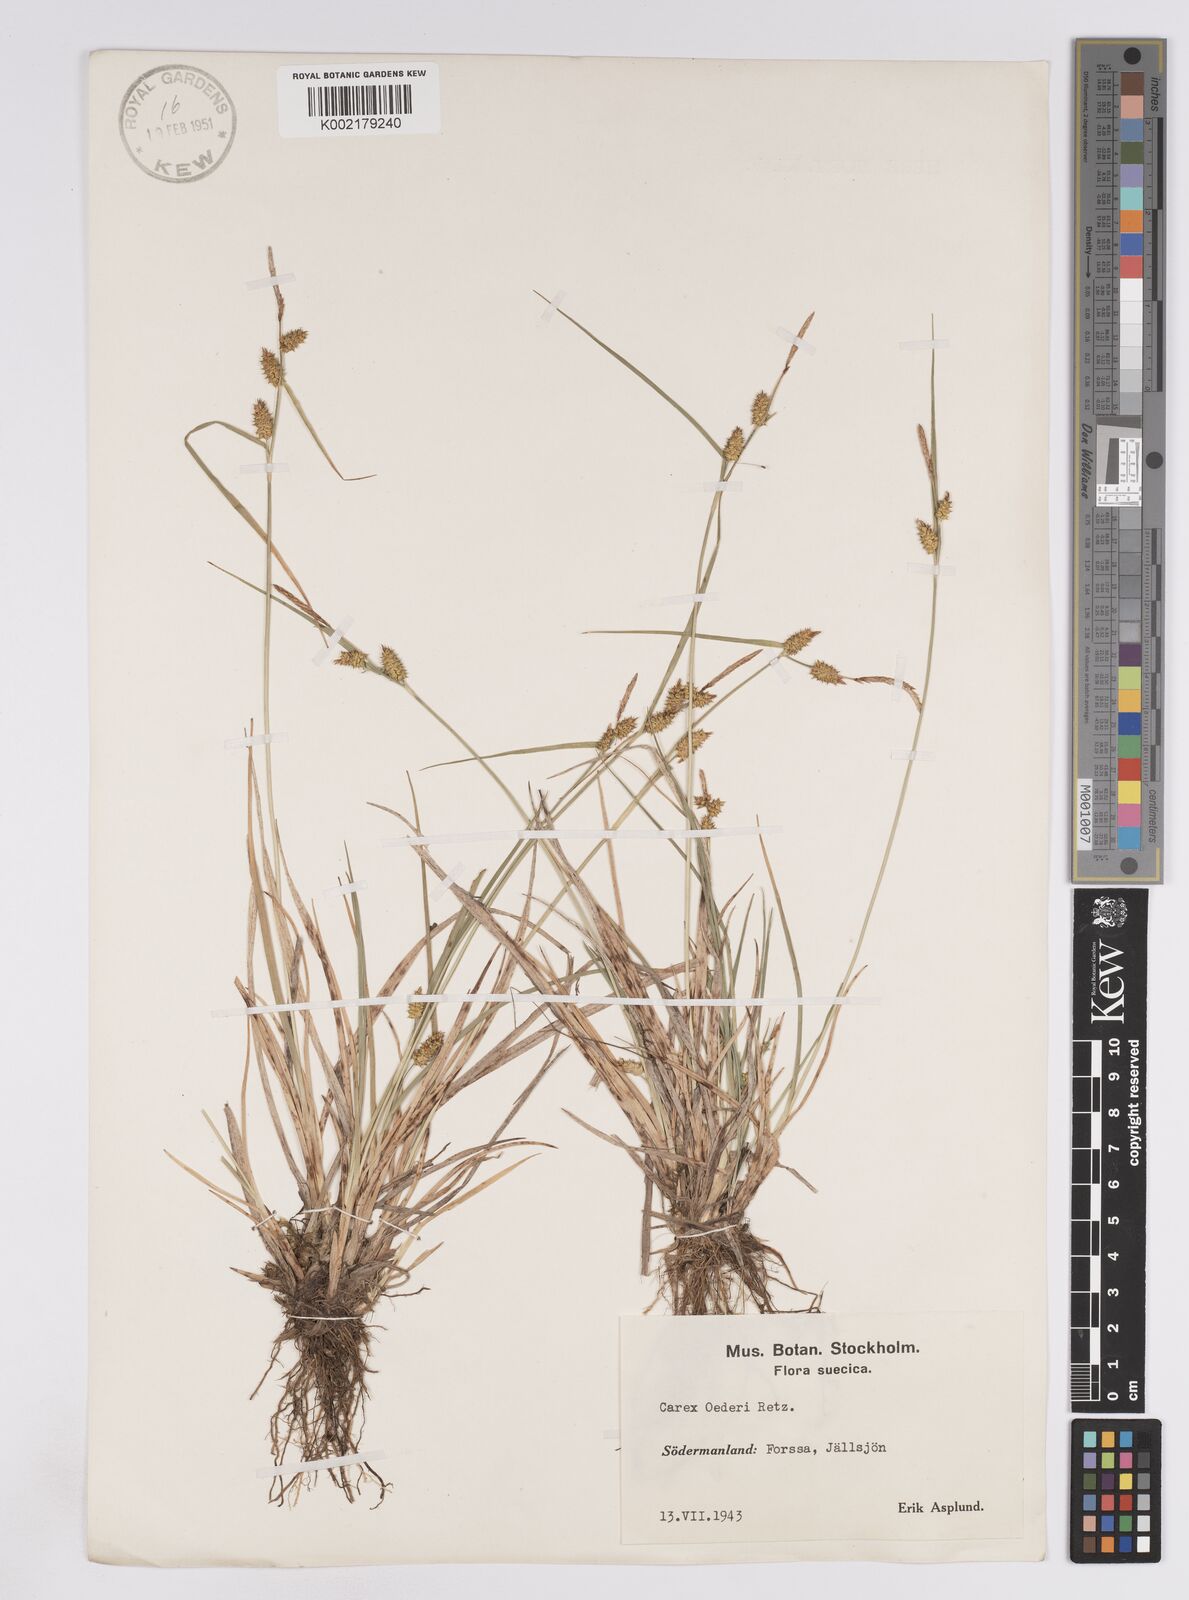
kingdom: Plantae
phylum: Tracheophyta
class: Liliopsida
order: Poales
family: Cyperaceae
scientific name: Cyperaceae
